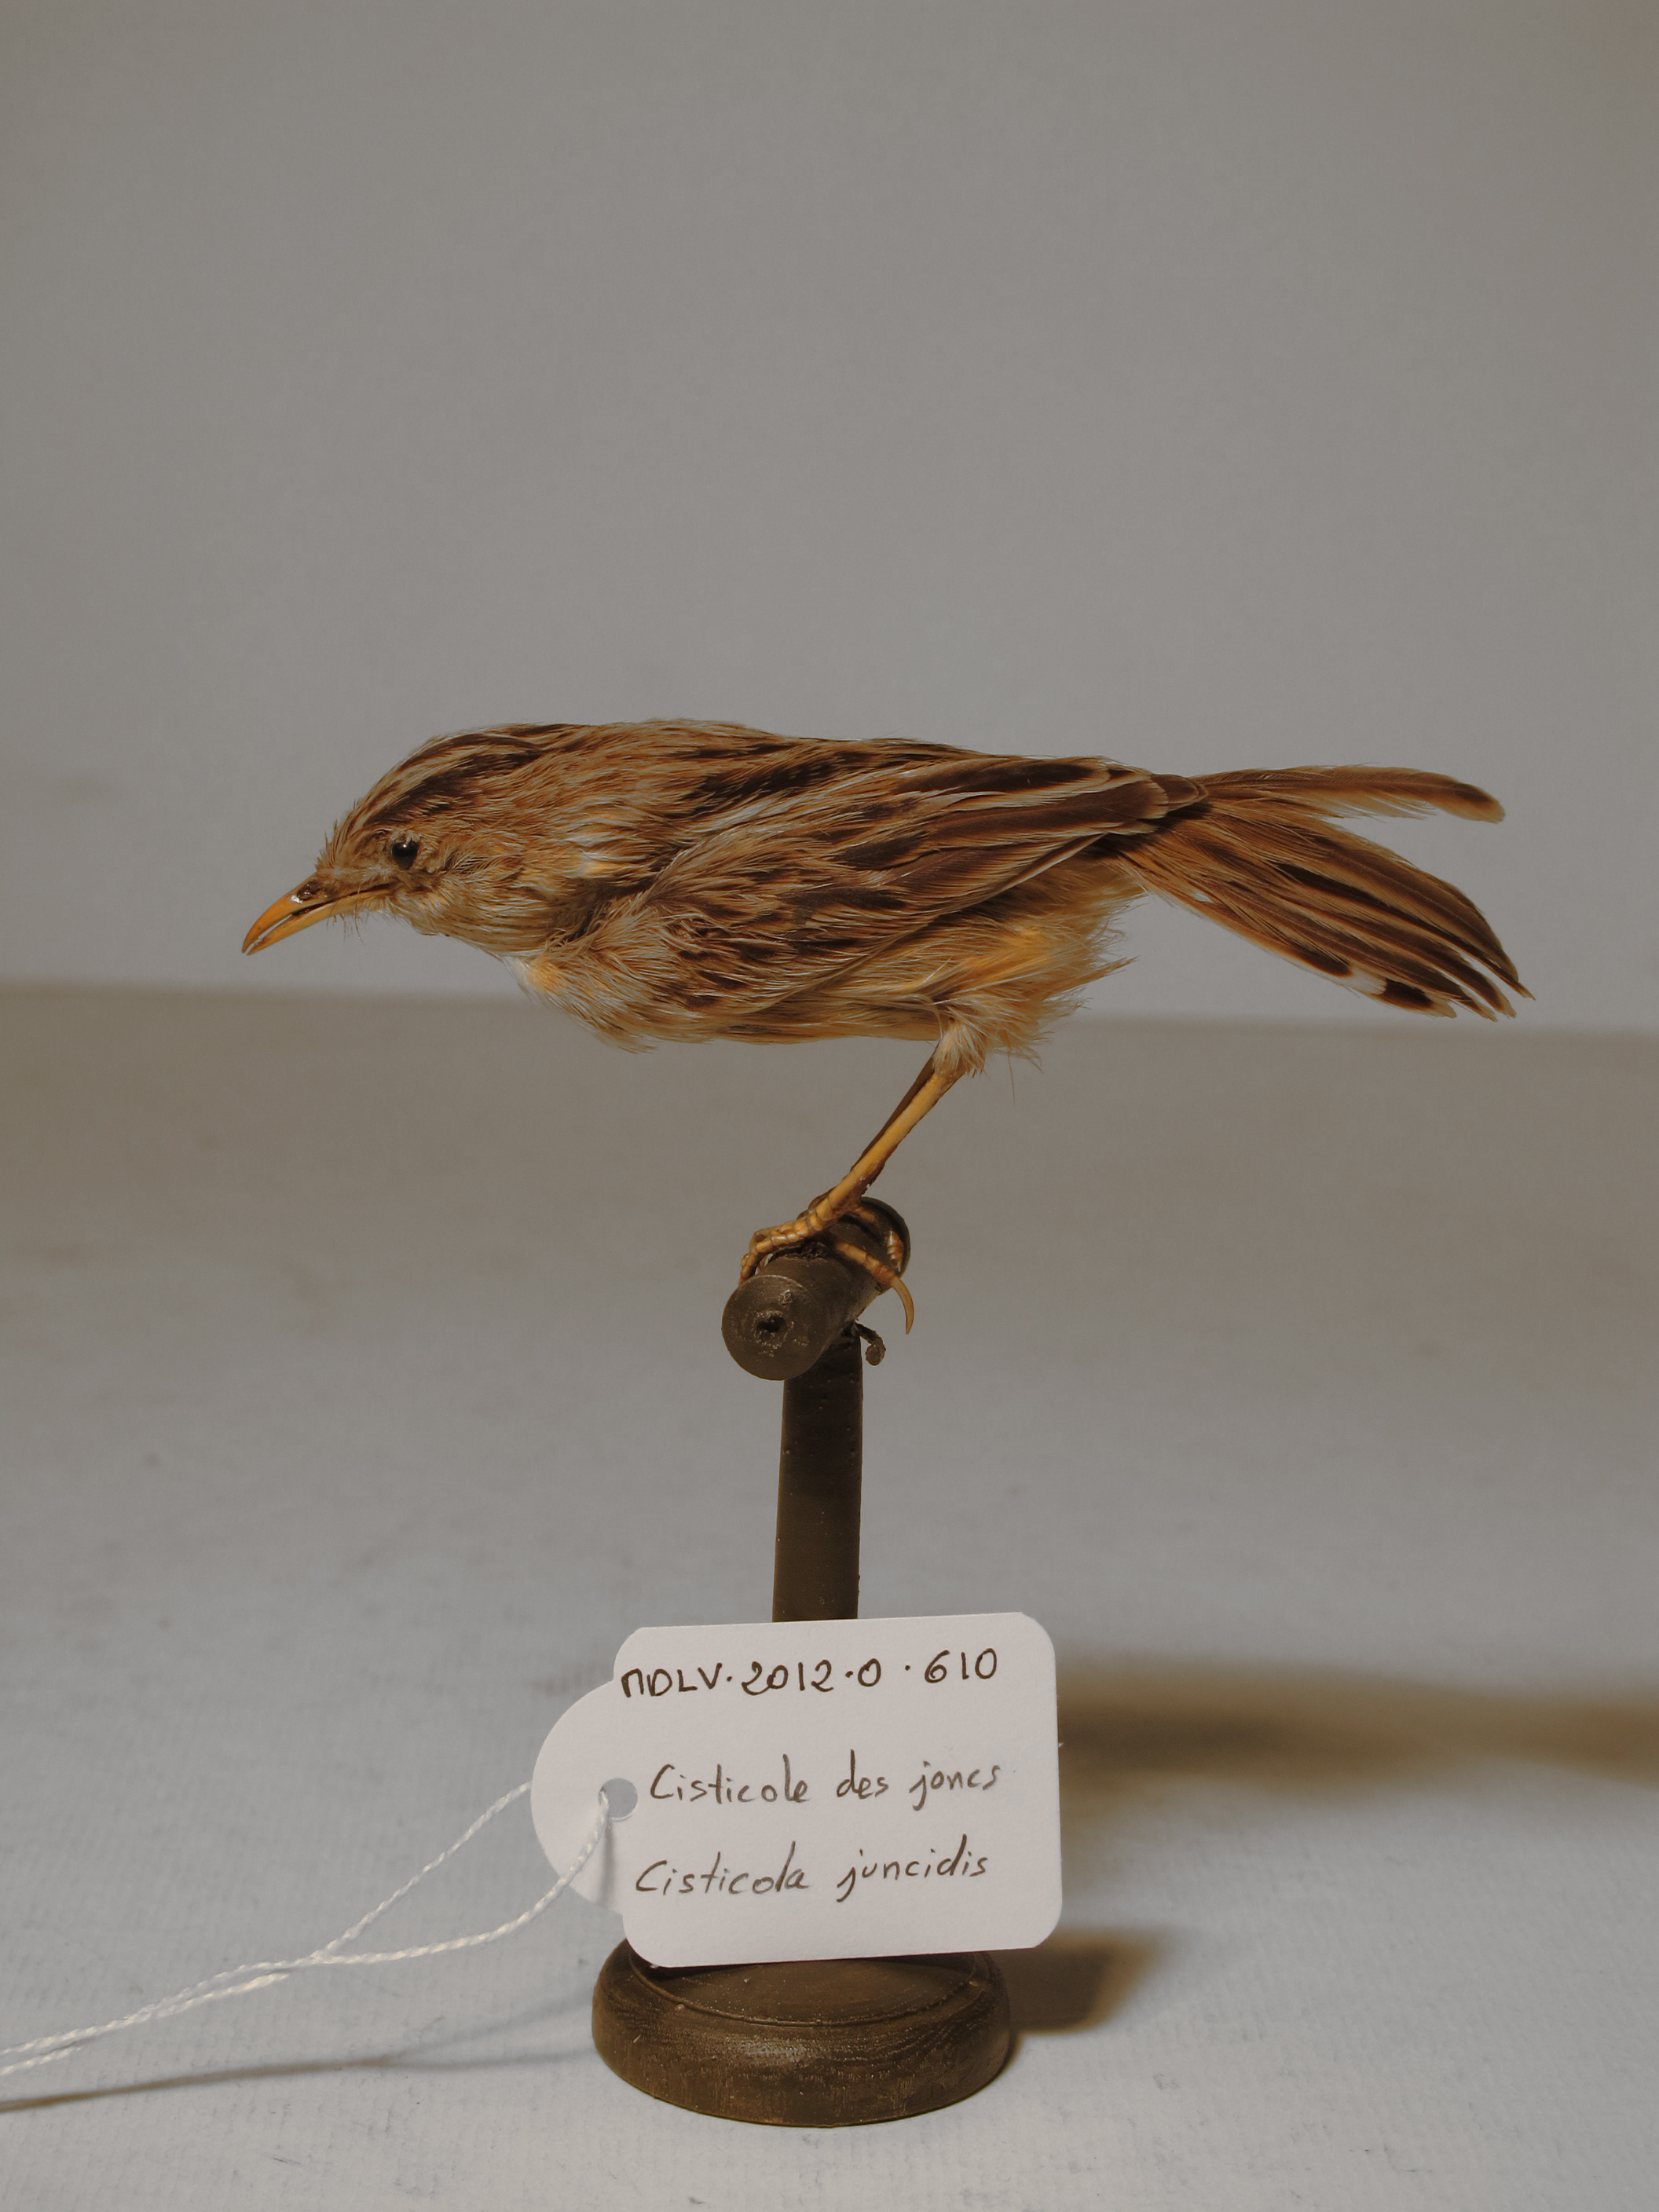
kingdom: Animalia
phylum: Chordata
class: Aves
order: Passeriformes
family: Cisticolidae
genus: Cisticola
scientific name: Cisticola juncidis
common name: Zitting Cisticola
